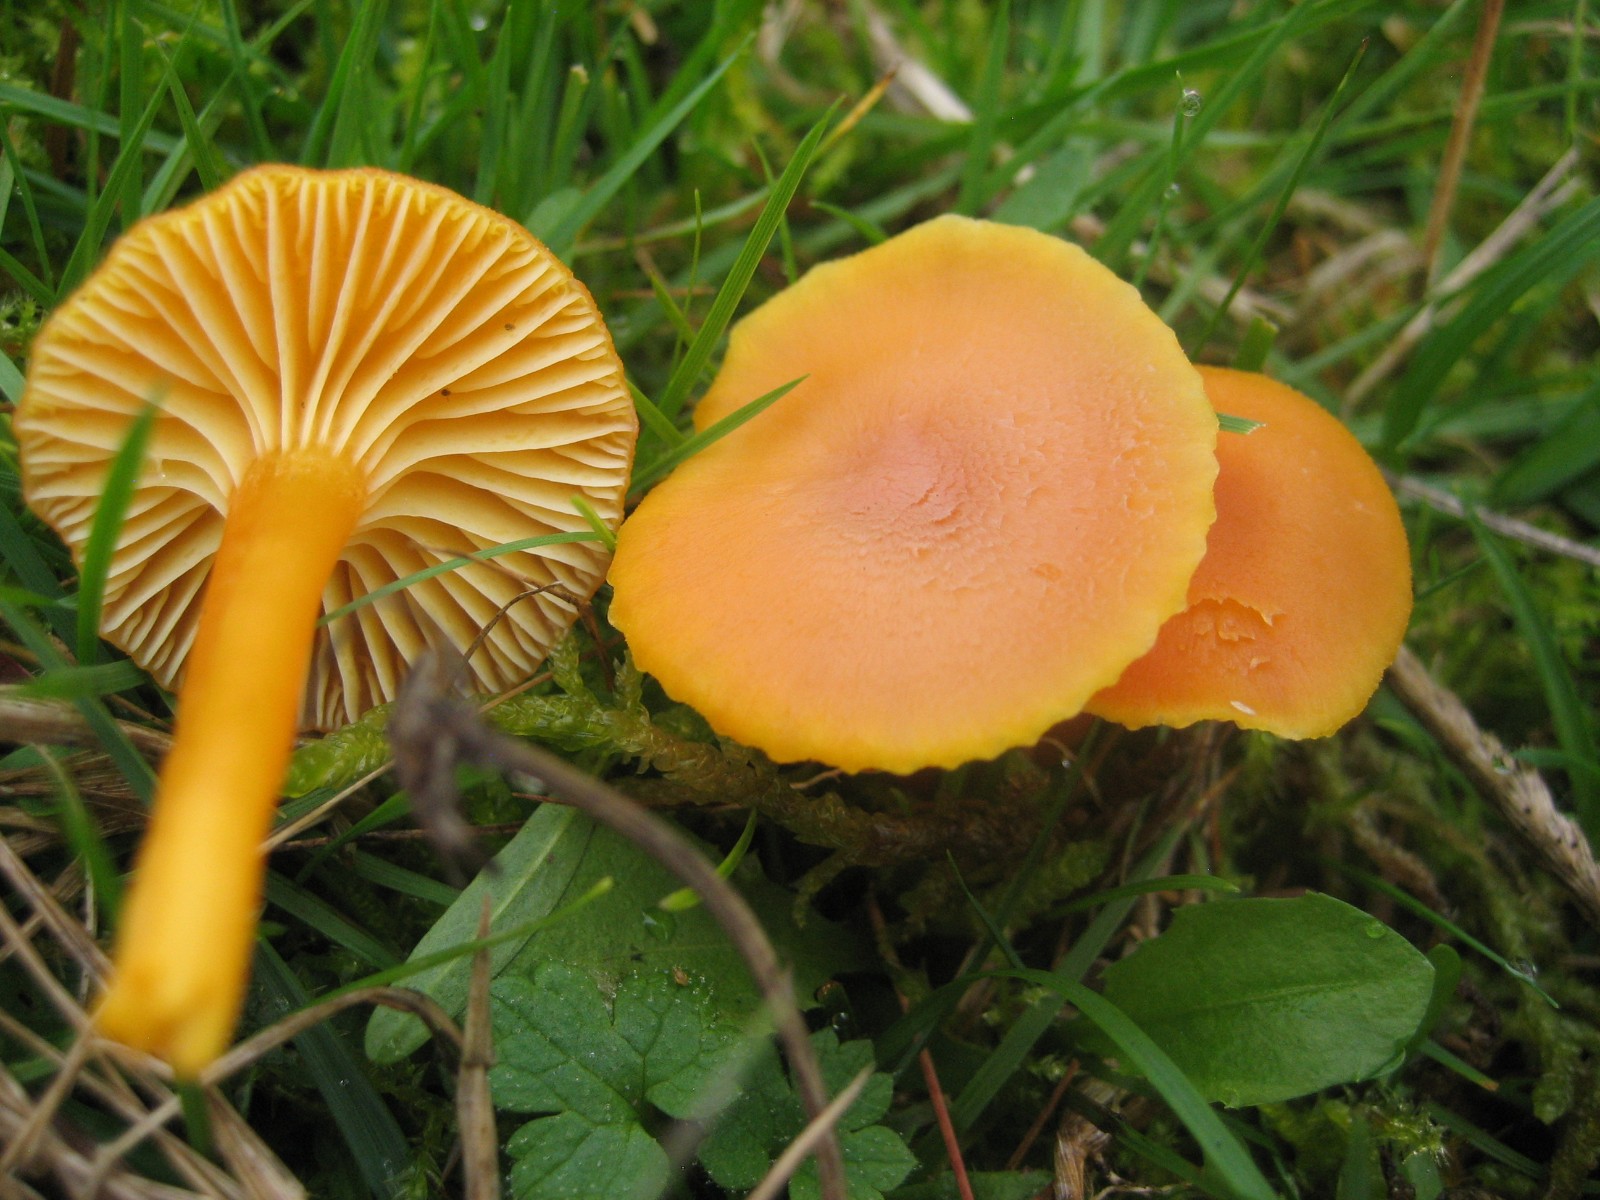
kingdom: Fungi
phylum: Basidiomycota
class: Agaricomycetes
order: Agaricales
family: Hygrophoraceae
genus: Hygrocybe
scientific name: Hygrocybe reidii
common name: honning-vokshat
